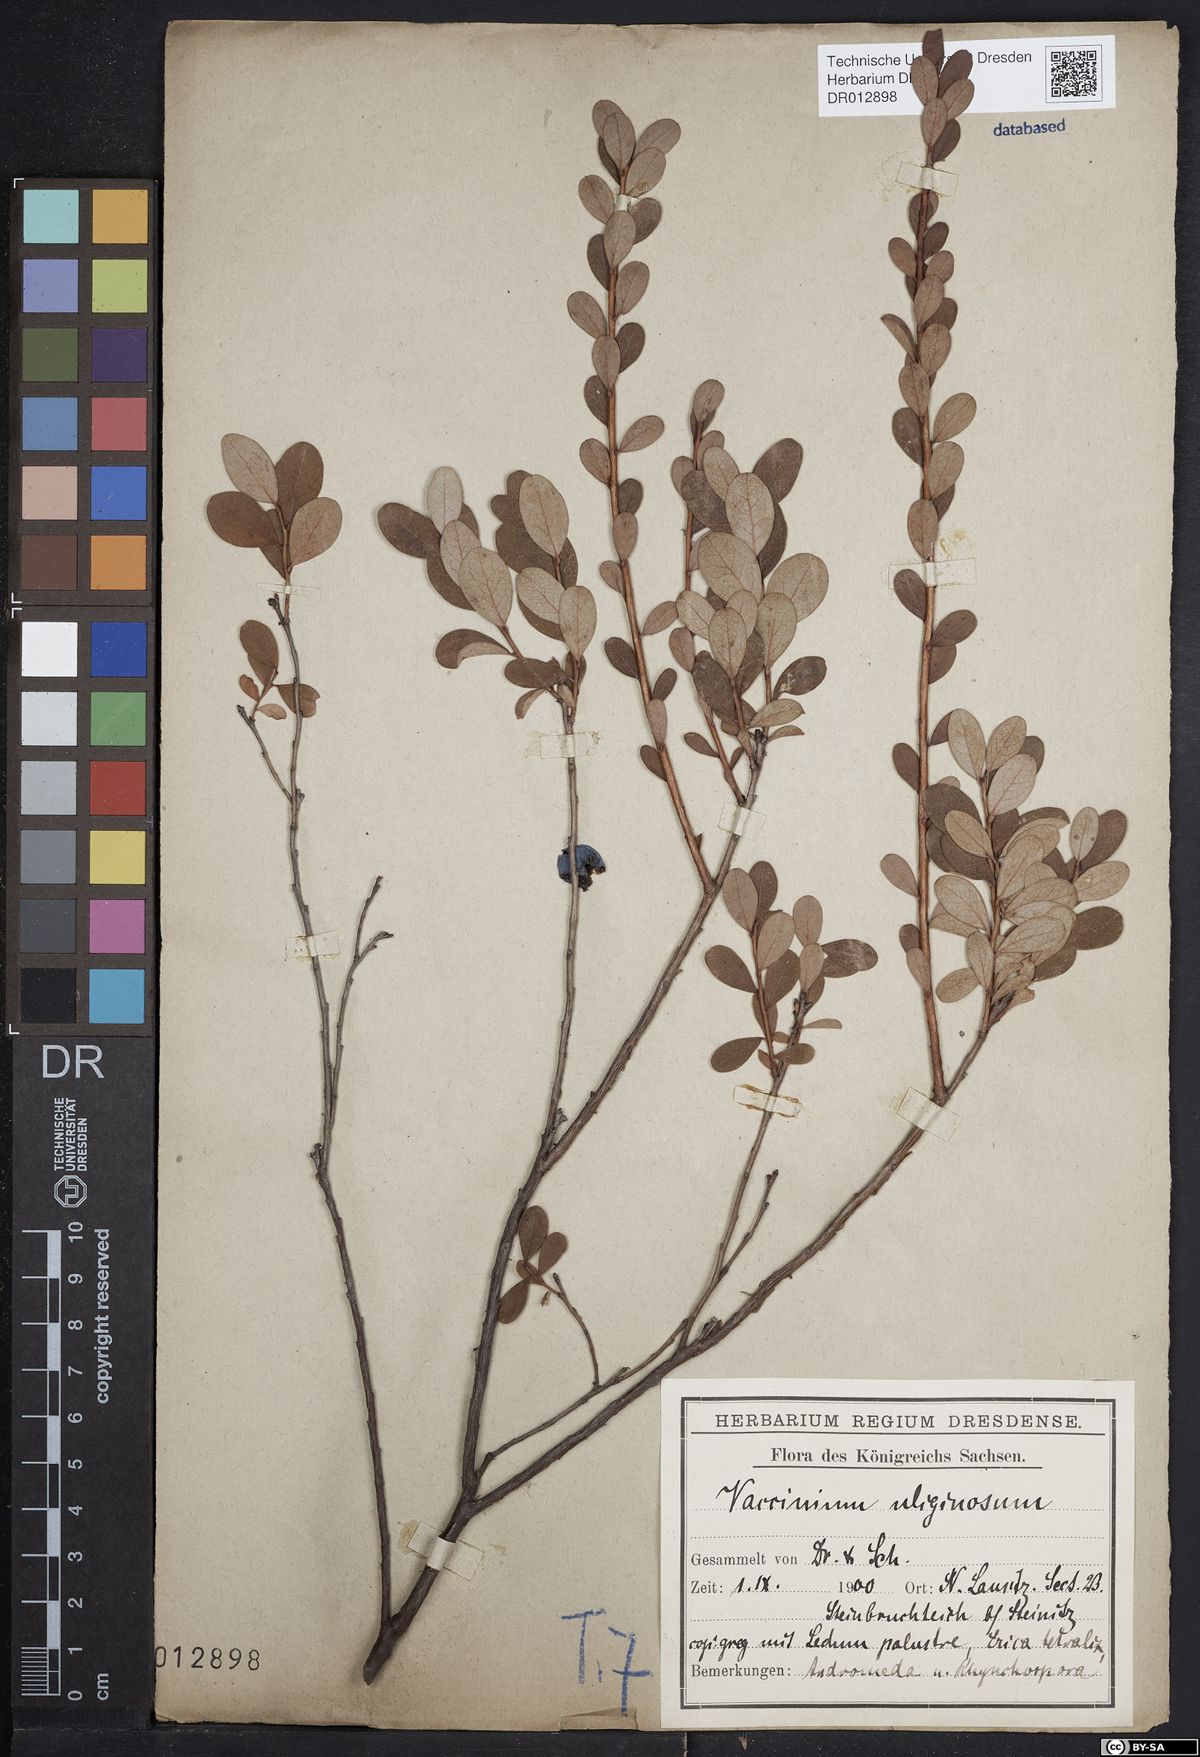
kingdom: Plantae
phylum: Tracheophyta
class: Magnoliopsida
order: Ericales
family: Ericaceae
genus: Vaccinium
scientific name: Vaccinium uliginosum
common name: Bog bilberry
